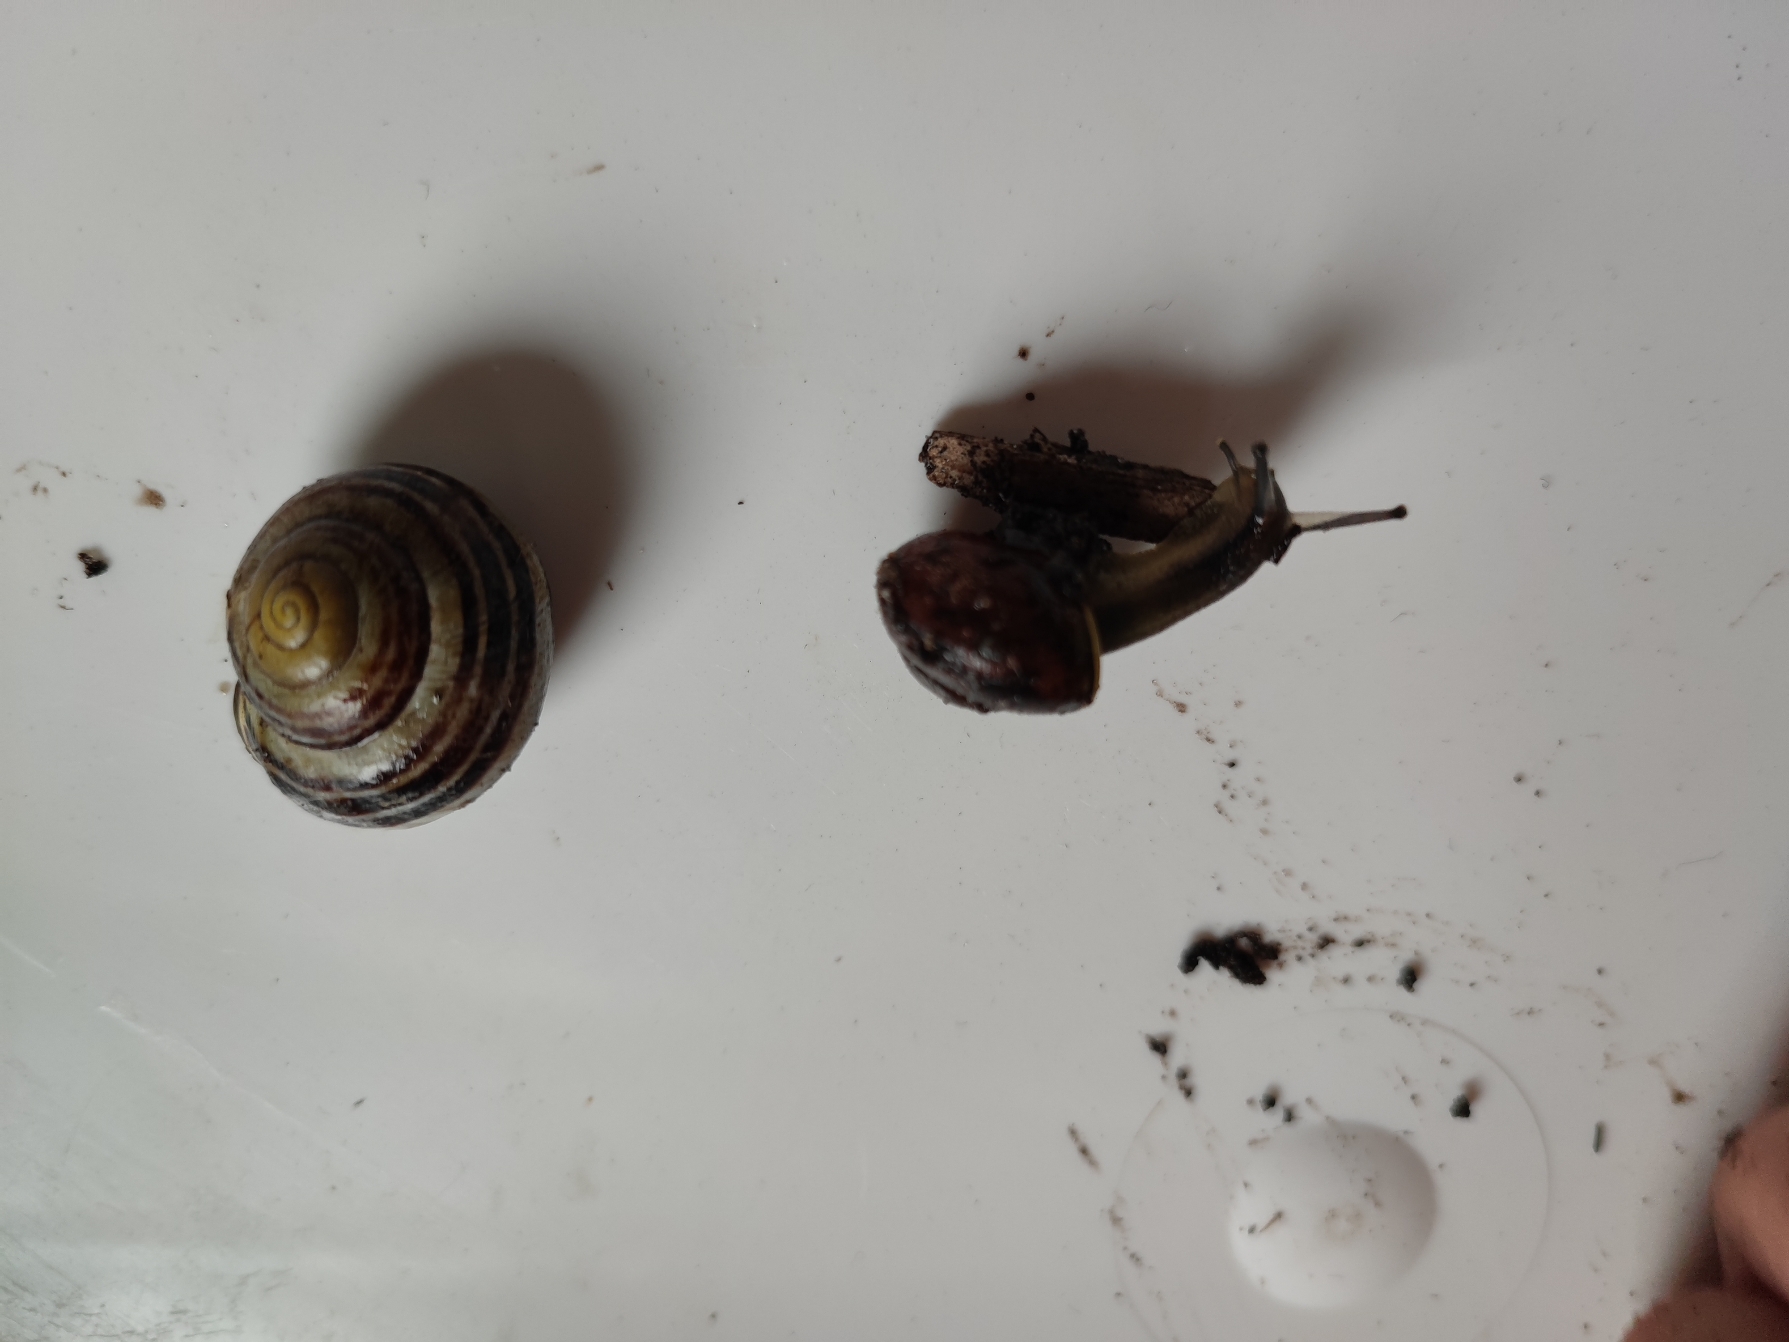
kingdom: Animalia
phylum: Mollusca
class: Gastropoda
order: Stylommatophora
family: Helicidae
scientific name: Helicidae
